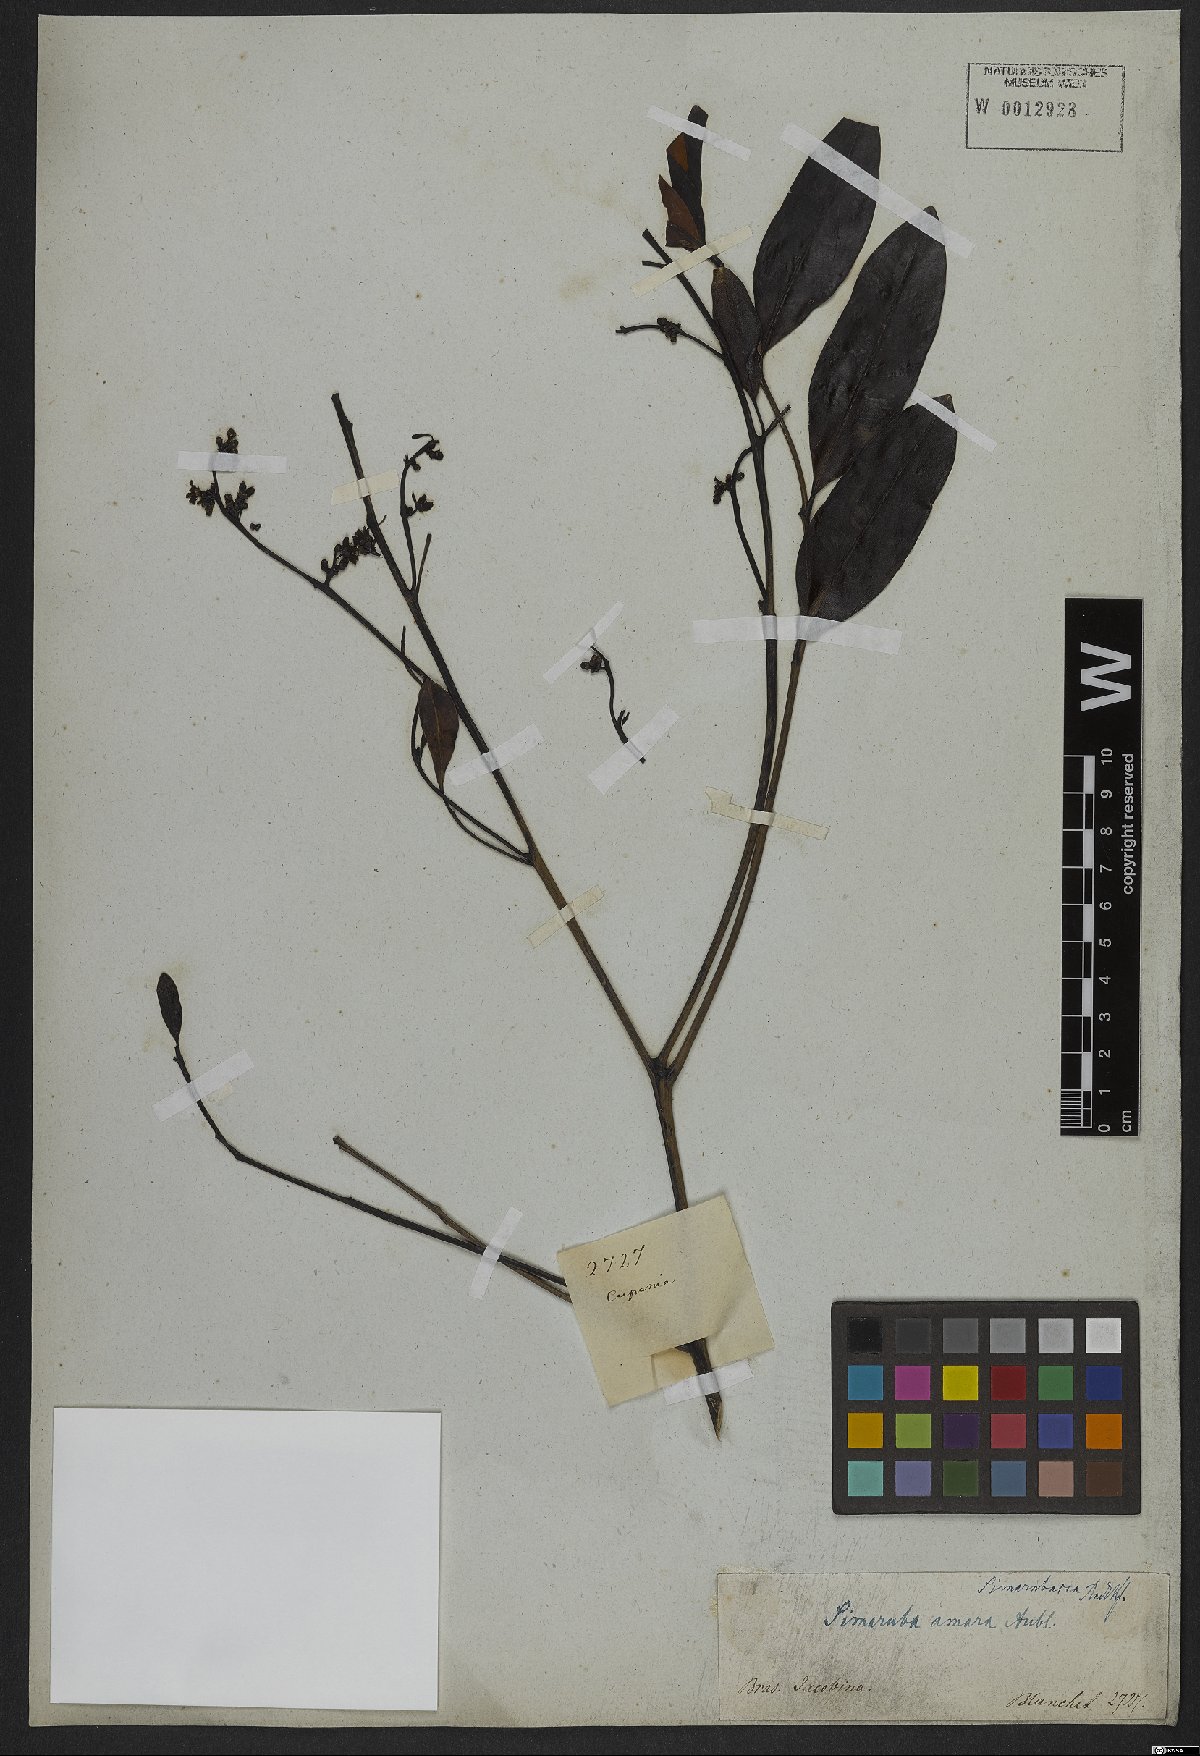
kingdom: Plantae
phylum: Tracheophyta
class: Magnoliopsida
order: Sapindales
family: Simaroubaceae
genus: Simarouba
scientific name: Simarouba amara
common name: Bitterwood
